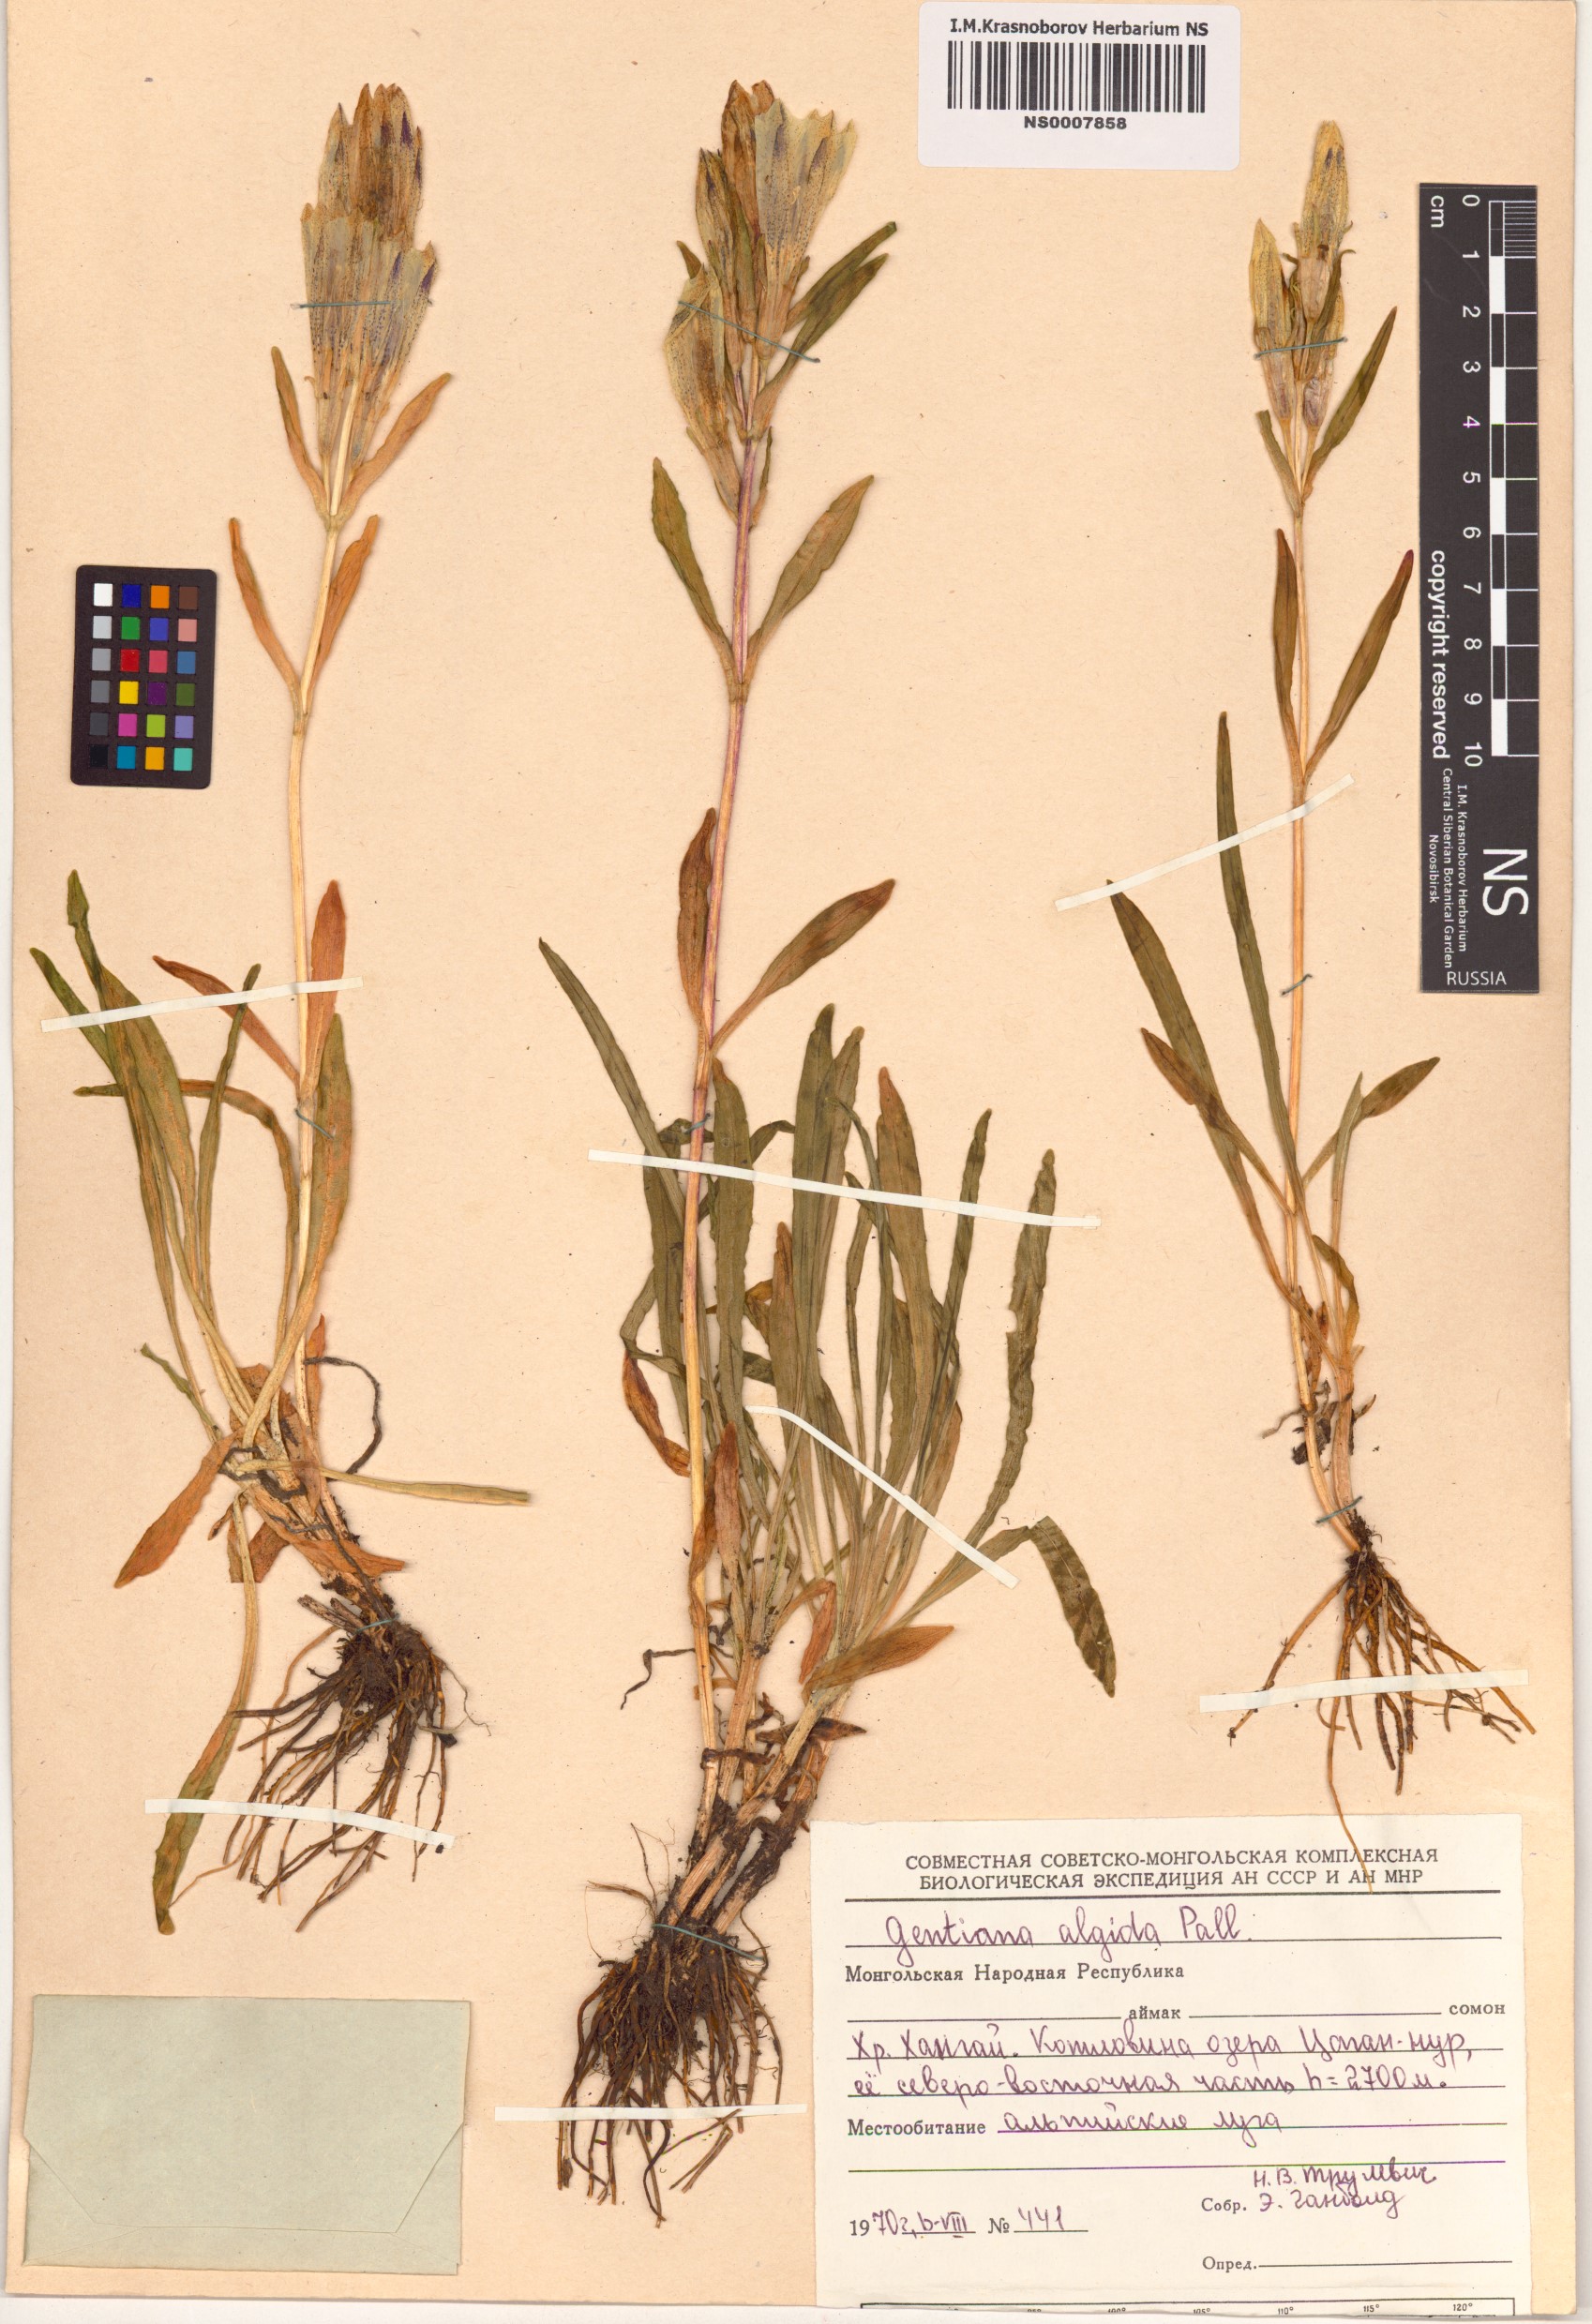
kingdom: Plantae
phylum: Tracheophyta
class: Magnoliopsida
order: Gentianales
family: Gentianaceae
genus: Gentiana
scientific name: Gentiana algida
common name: Arctic gentian
